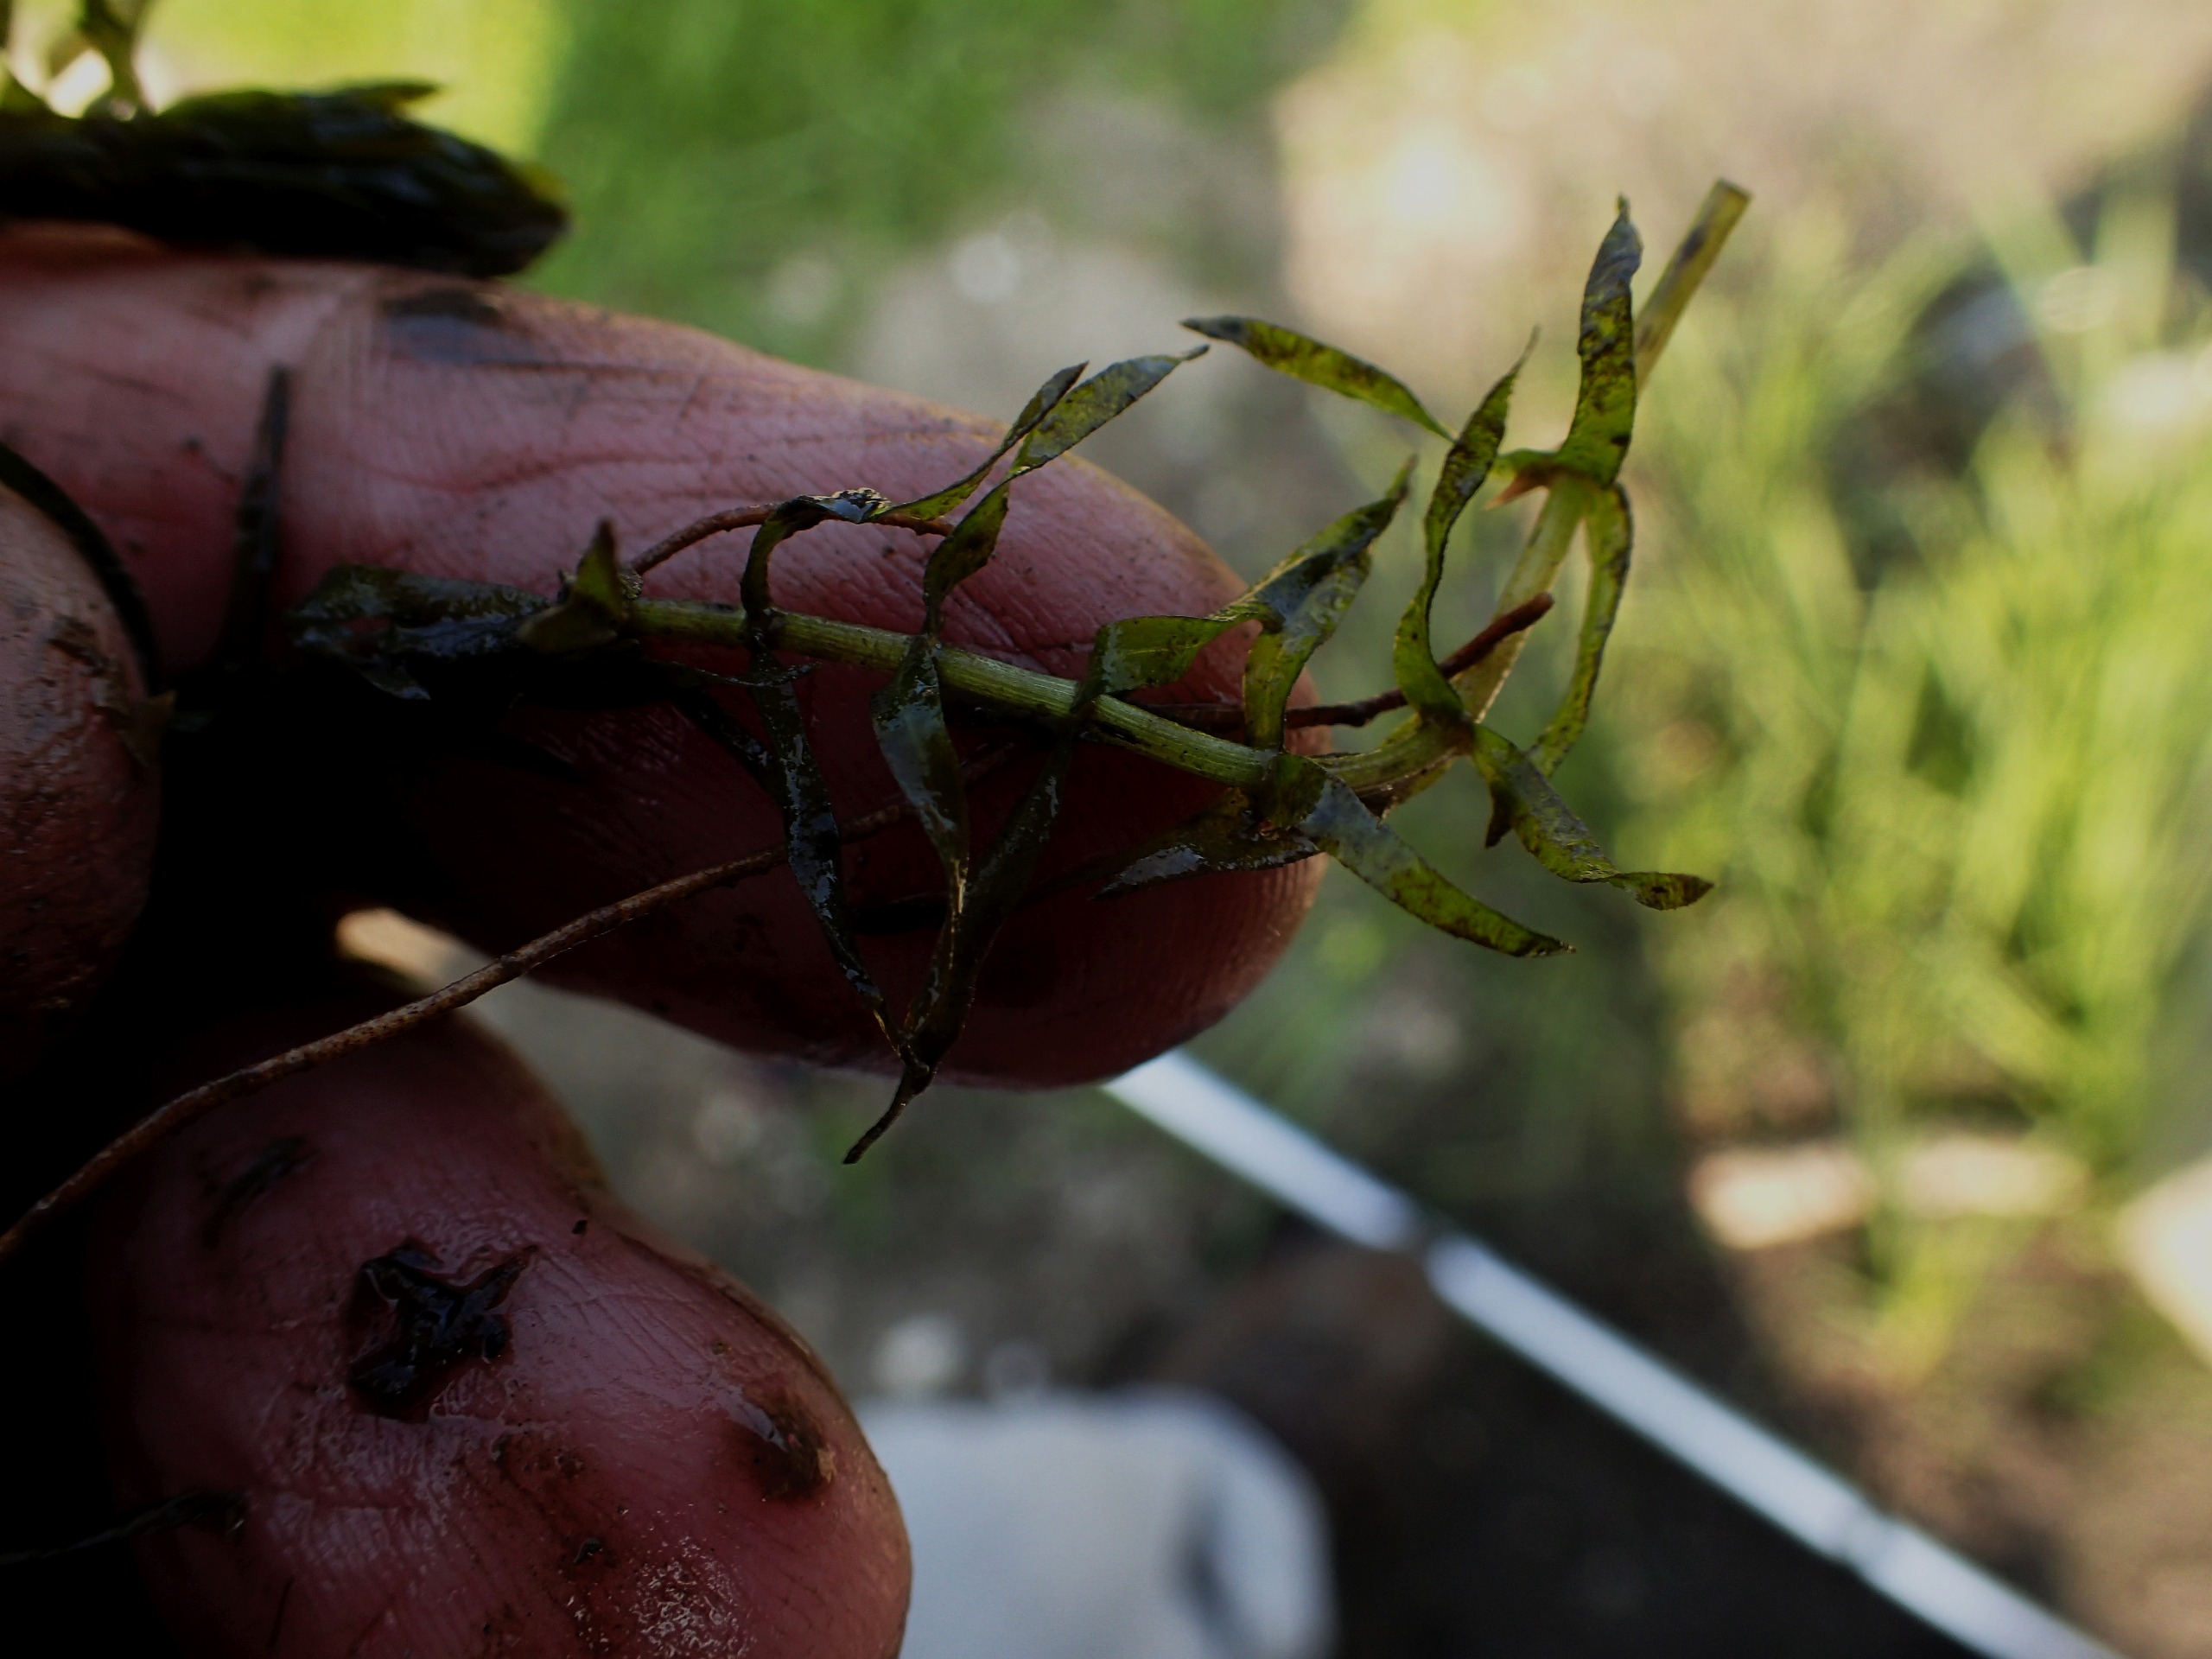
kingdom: Plantae
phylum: Tracheophyta
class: Liliopsida
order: Alismatales
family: Hydrocharitaceae
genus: Elodea
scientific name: Elodea nuttallii
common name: Smalbladet vandpest
